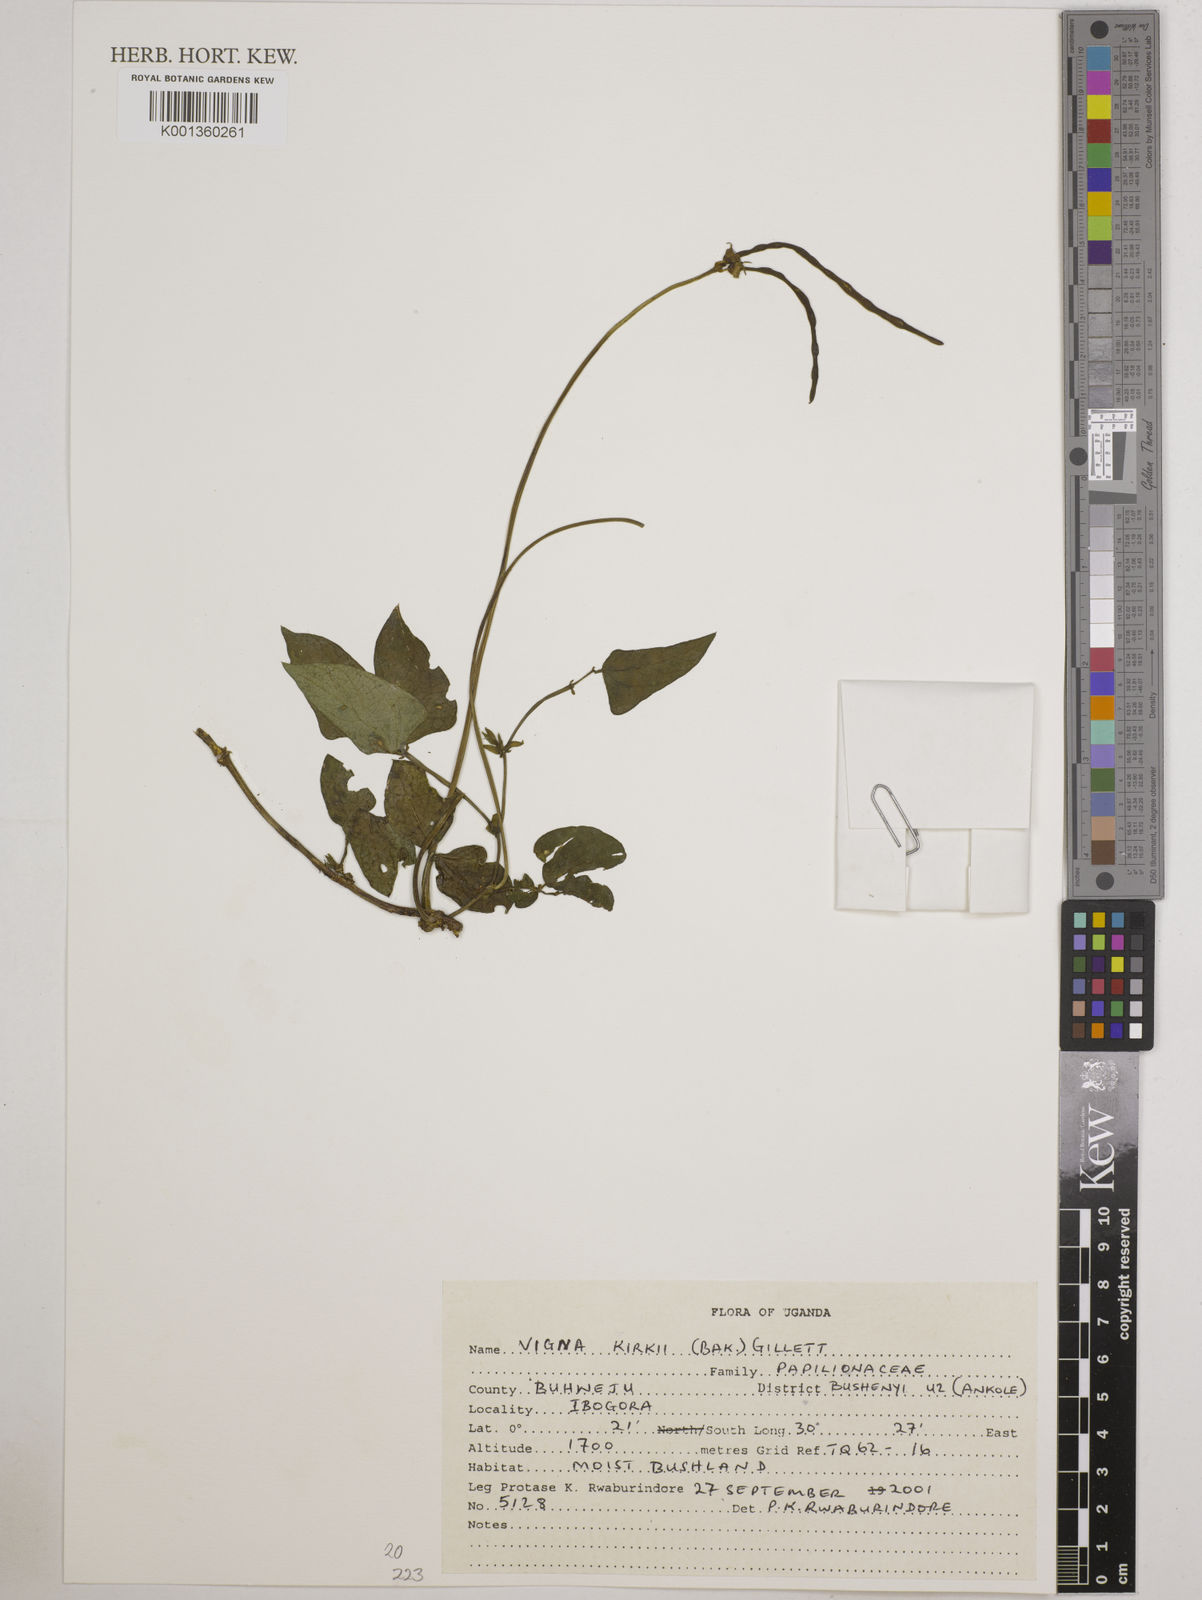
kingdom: Plantae
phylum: Tracheophyta
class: Magnoliopsida
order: Fabales
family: Fabaceae
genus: Vigna
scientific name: Vigna kirkii
